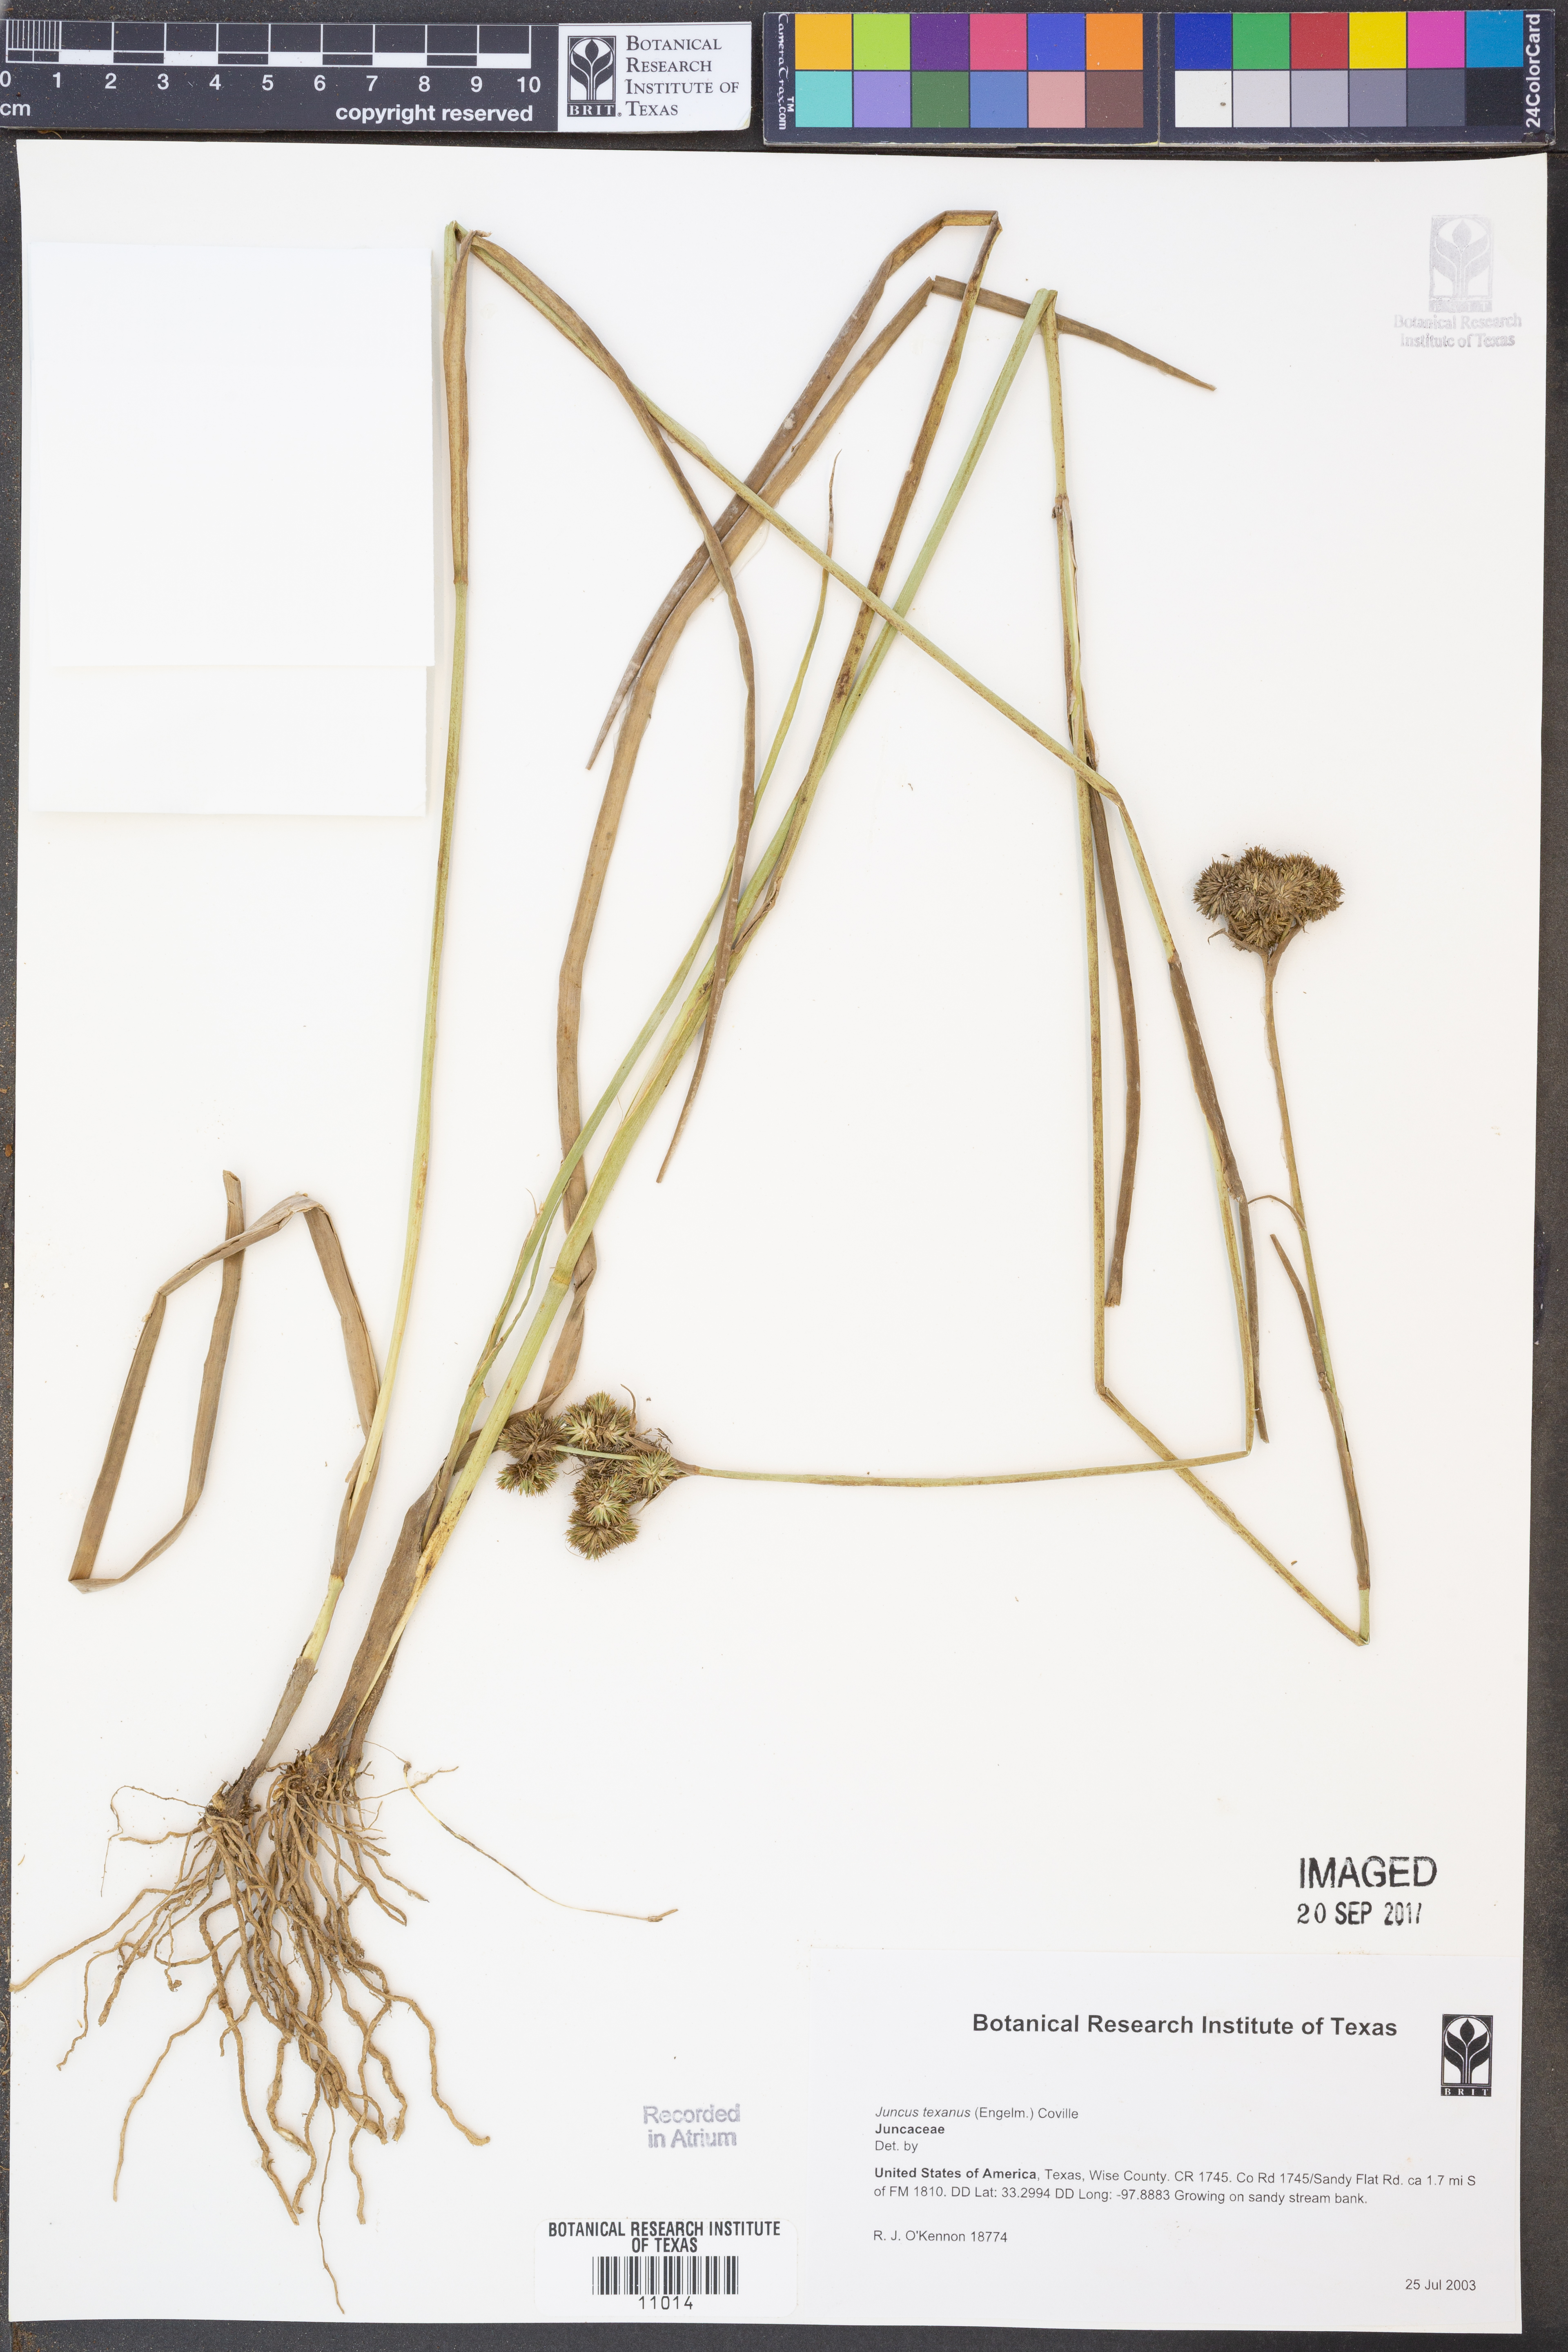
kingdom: Plantae
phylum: Tracheophyta
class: Liliopsida
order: Poales
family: Juncaceae
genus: Juncus
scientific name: Juncus texanus
